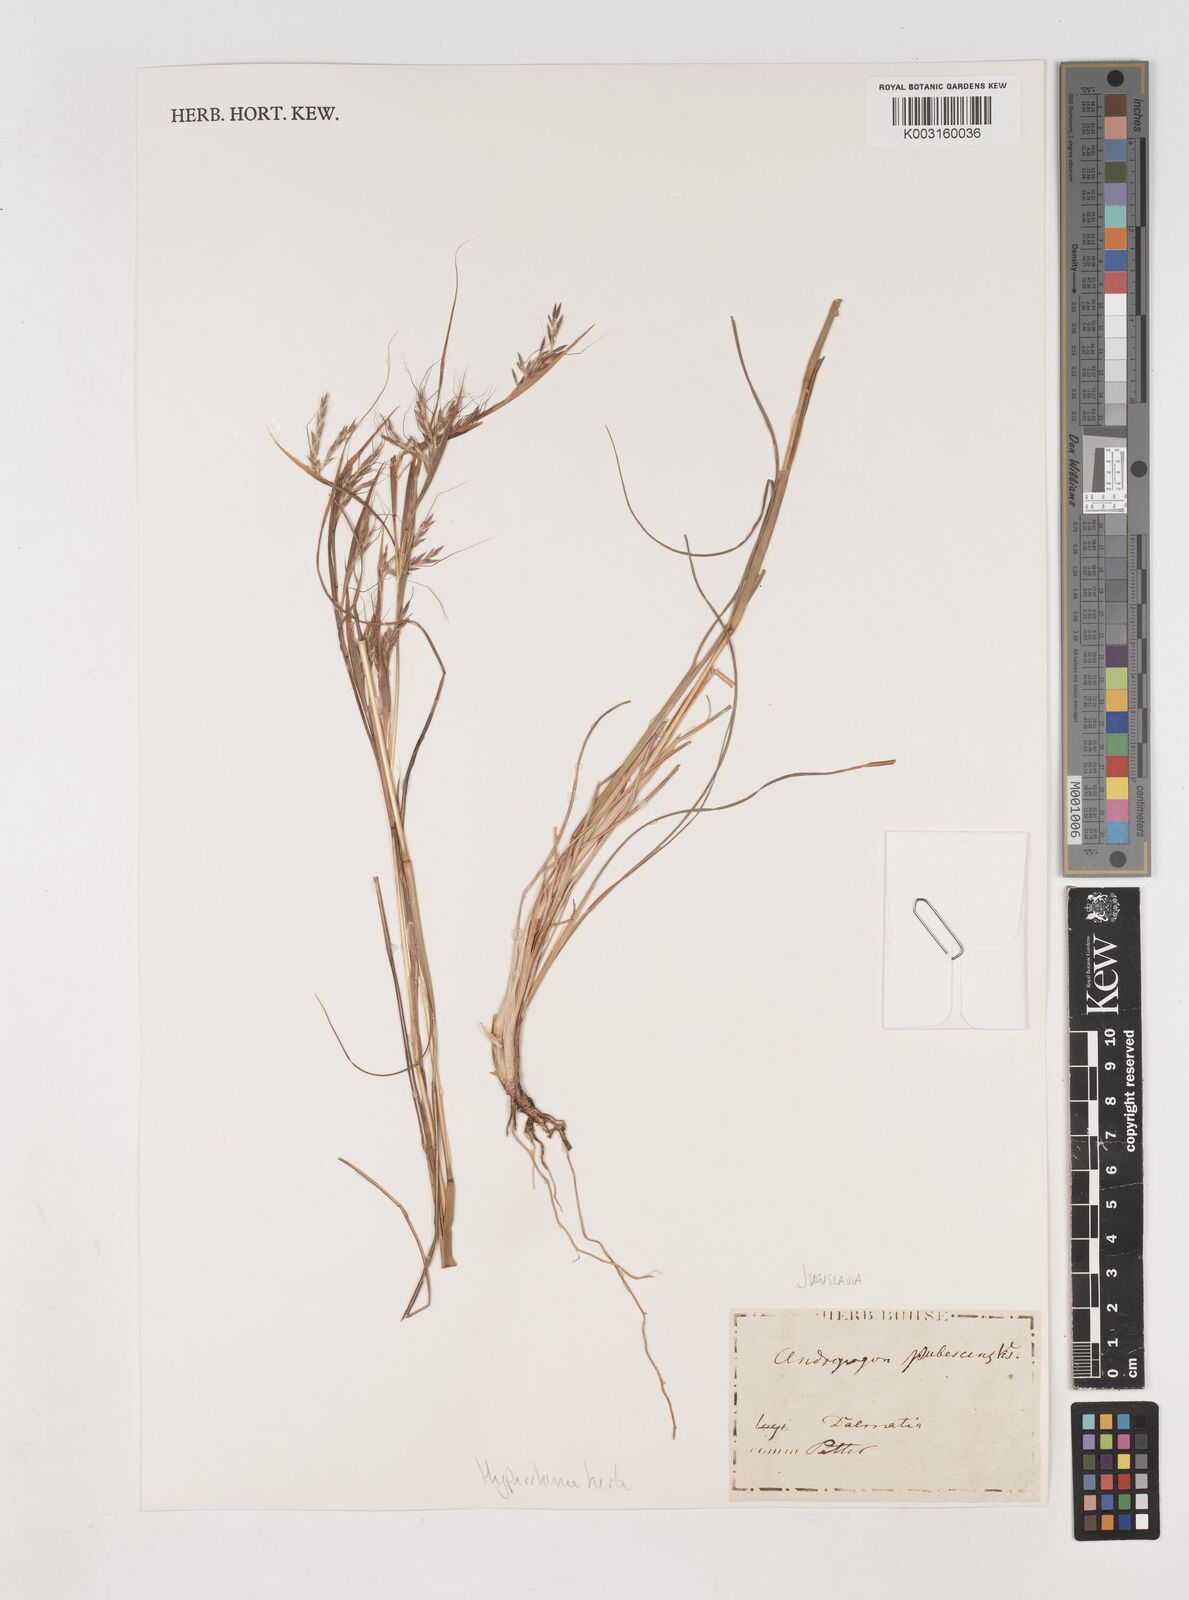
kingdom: Plantae
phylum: Tracheophyta
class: Liliopsida
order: Poales
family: Poaceae
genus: Hyparrhenia
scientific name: Hyparrhenia hirta
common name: Thatching grass
